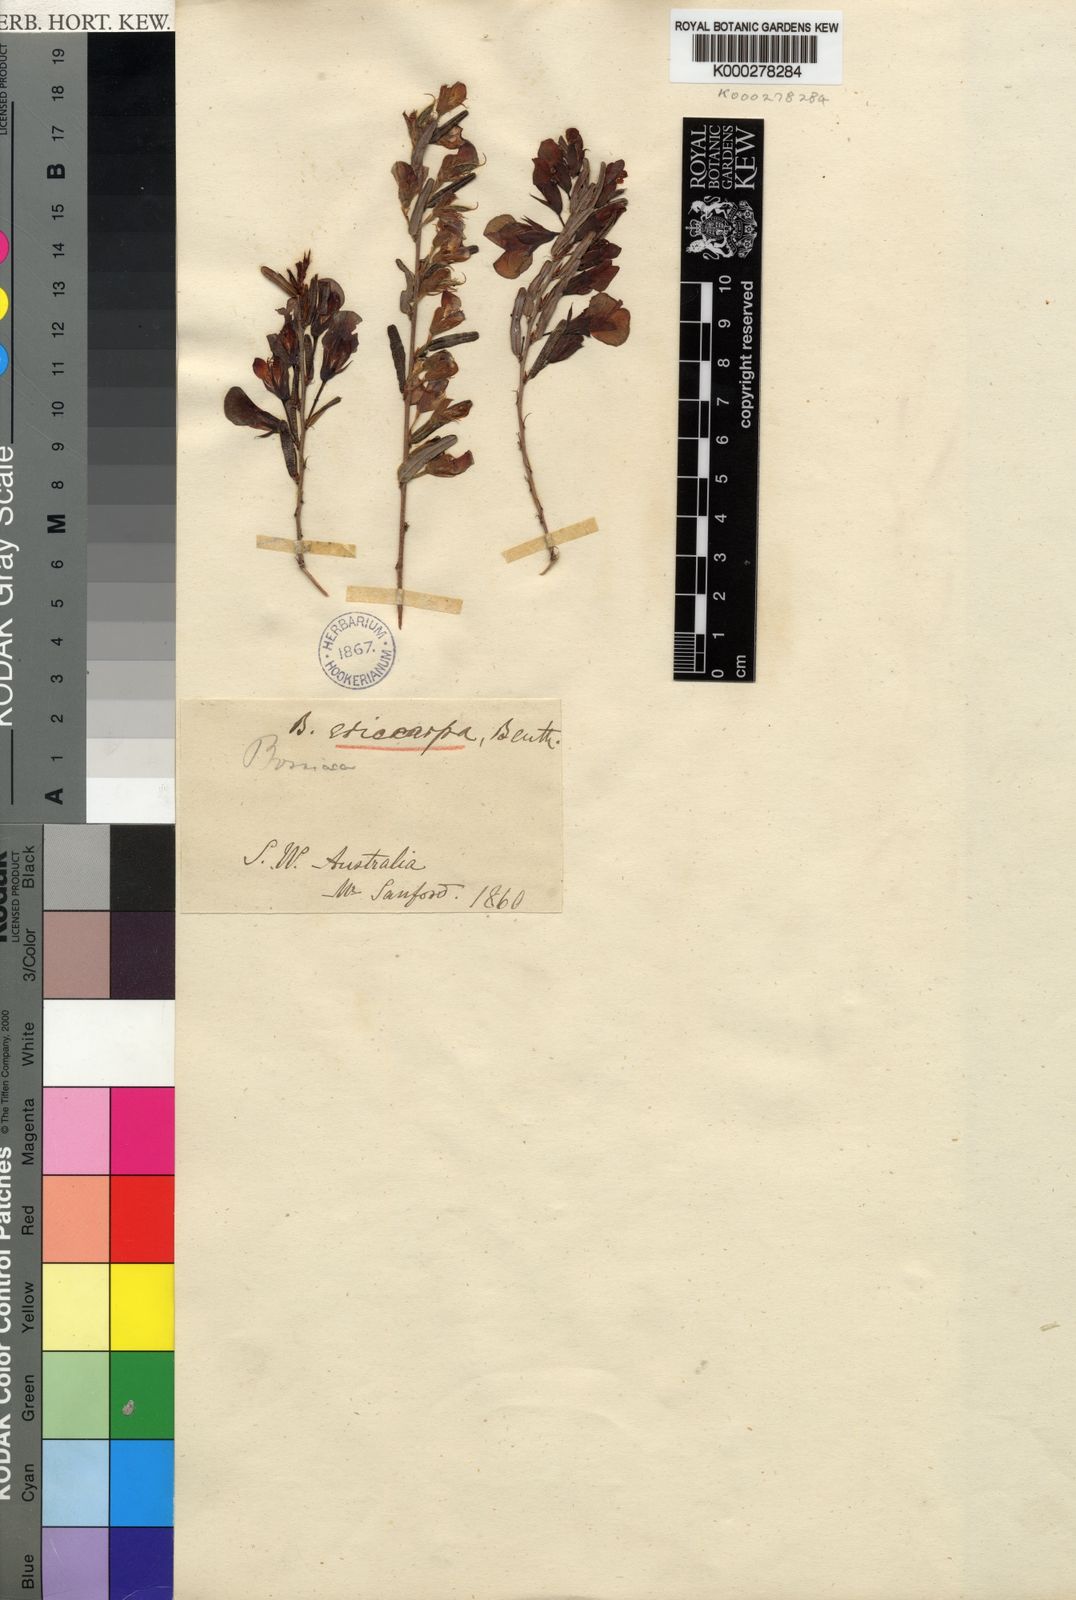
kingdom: Plantae
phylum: Tracheophyta
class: Magnoliopsida
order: Fabales
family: Fabaceae
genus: Bossiaea
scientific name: Bossiaea eriocarpa
